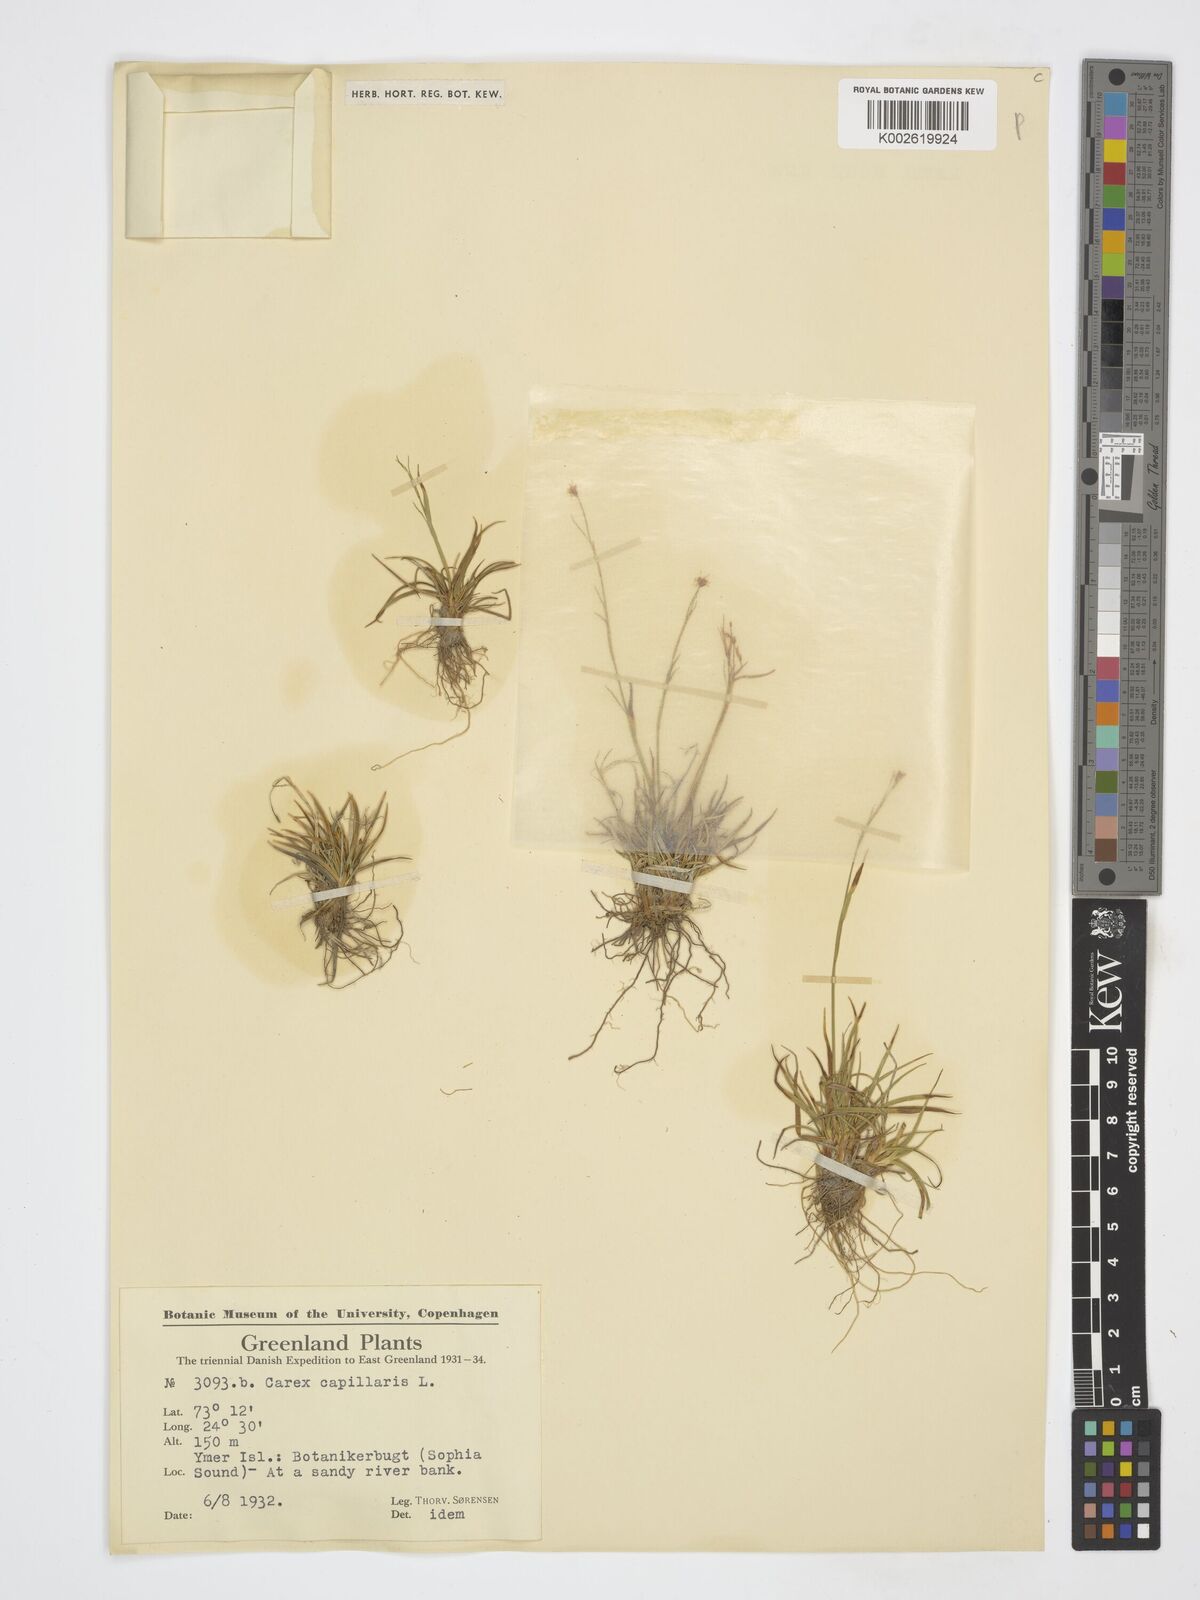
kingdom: Plantae
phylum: Tracheophyta
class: Liliopsida
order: Poales
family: Cyperaceae
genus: Carex
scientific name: Carex capillaris
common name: Hair sedge
